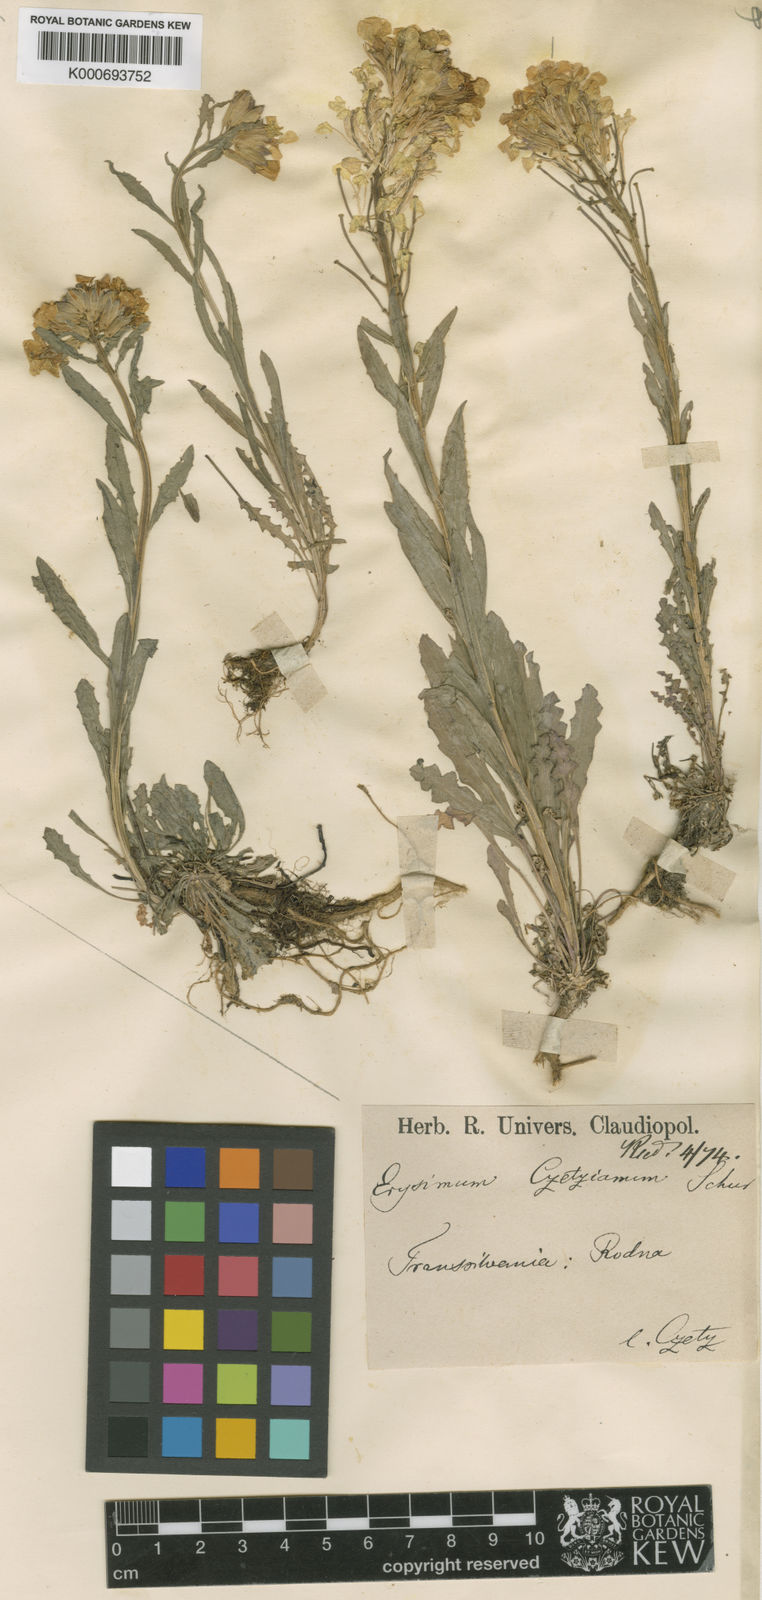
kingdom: Plantae
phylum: Tracheophyta
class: Magnoliopsida
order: Brassicales
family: Brassicaceae
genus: Erysimum
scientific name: Erysimum witmannii
